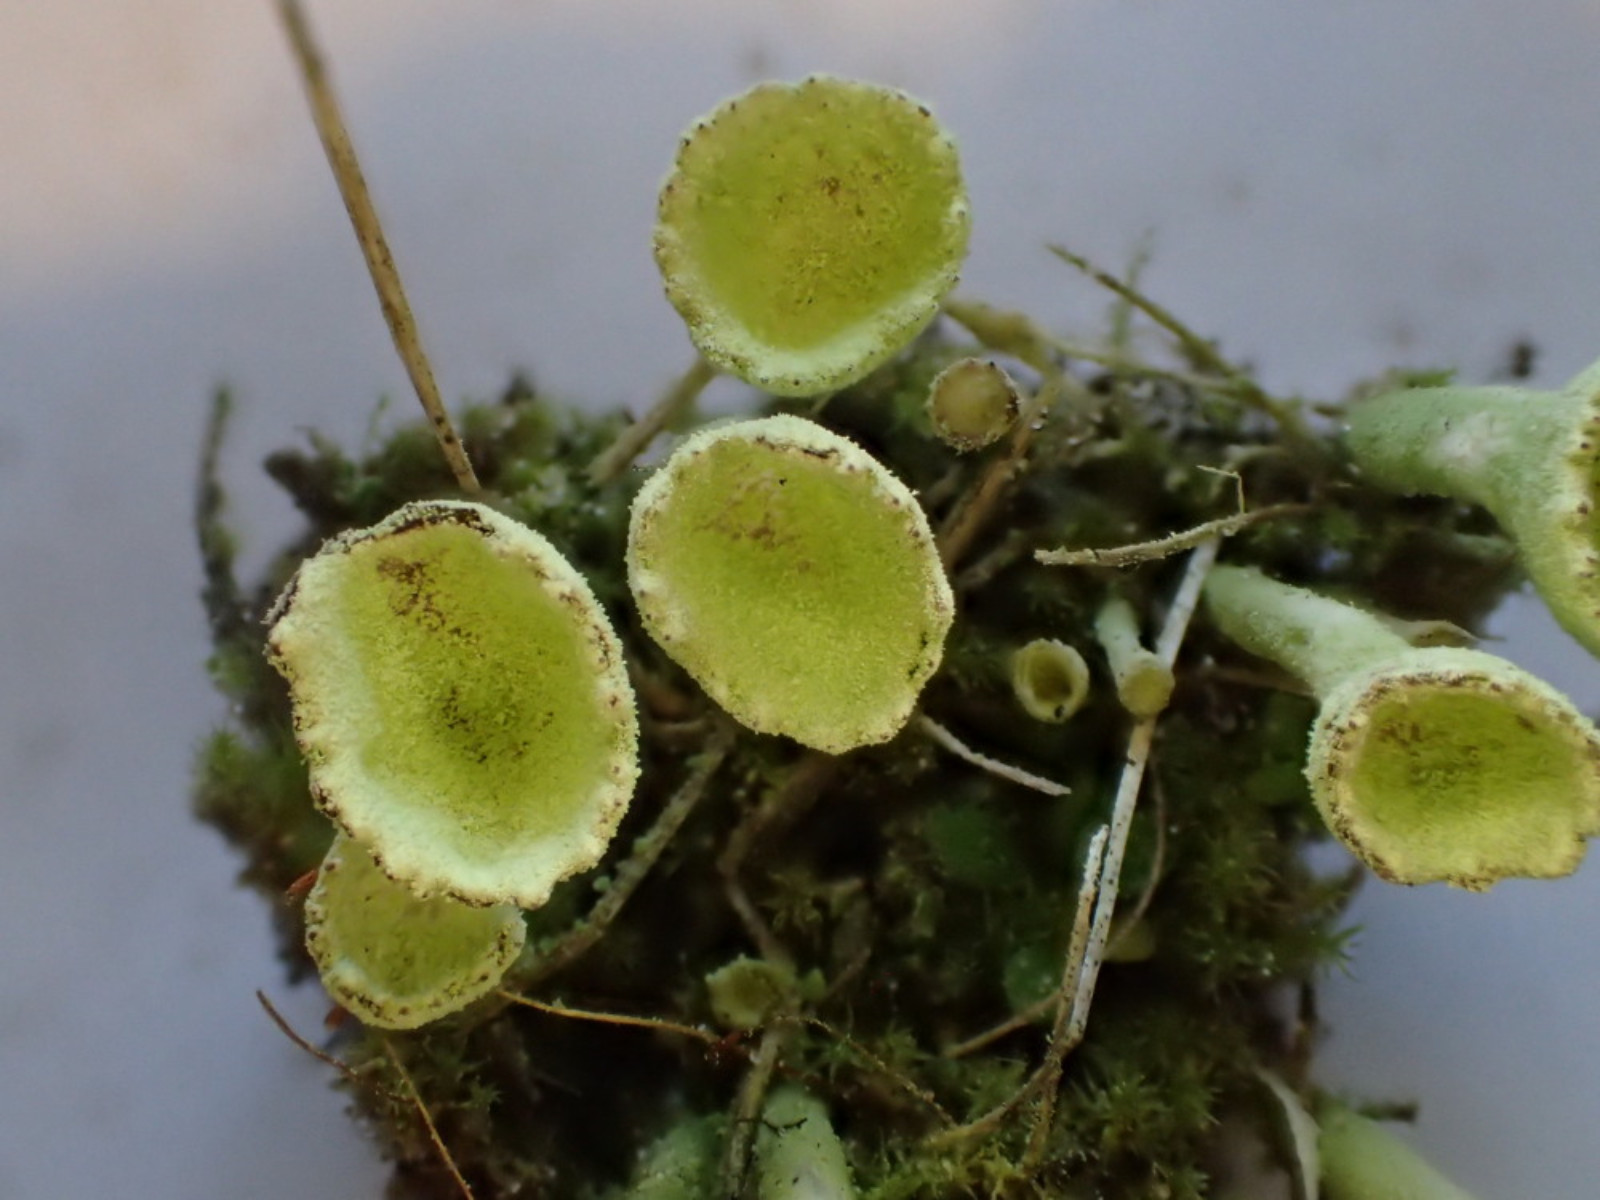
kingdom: Fungi
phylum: Ascomycota
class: Lecanoromycetes
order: Lecanorales
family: Cladoniaceae
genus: Cladonia
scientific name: Cladonia fimbriata
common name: bleggrøn bægerlav
